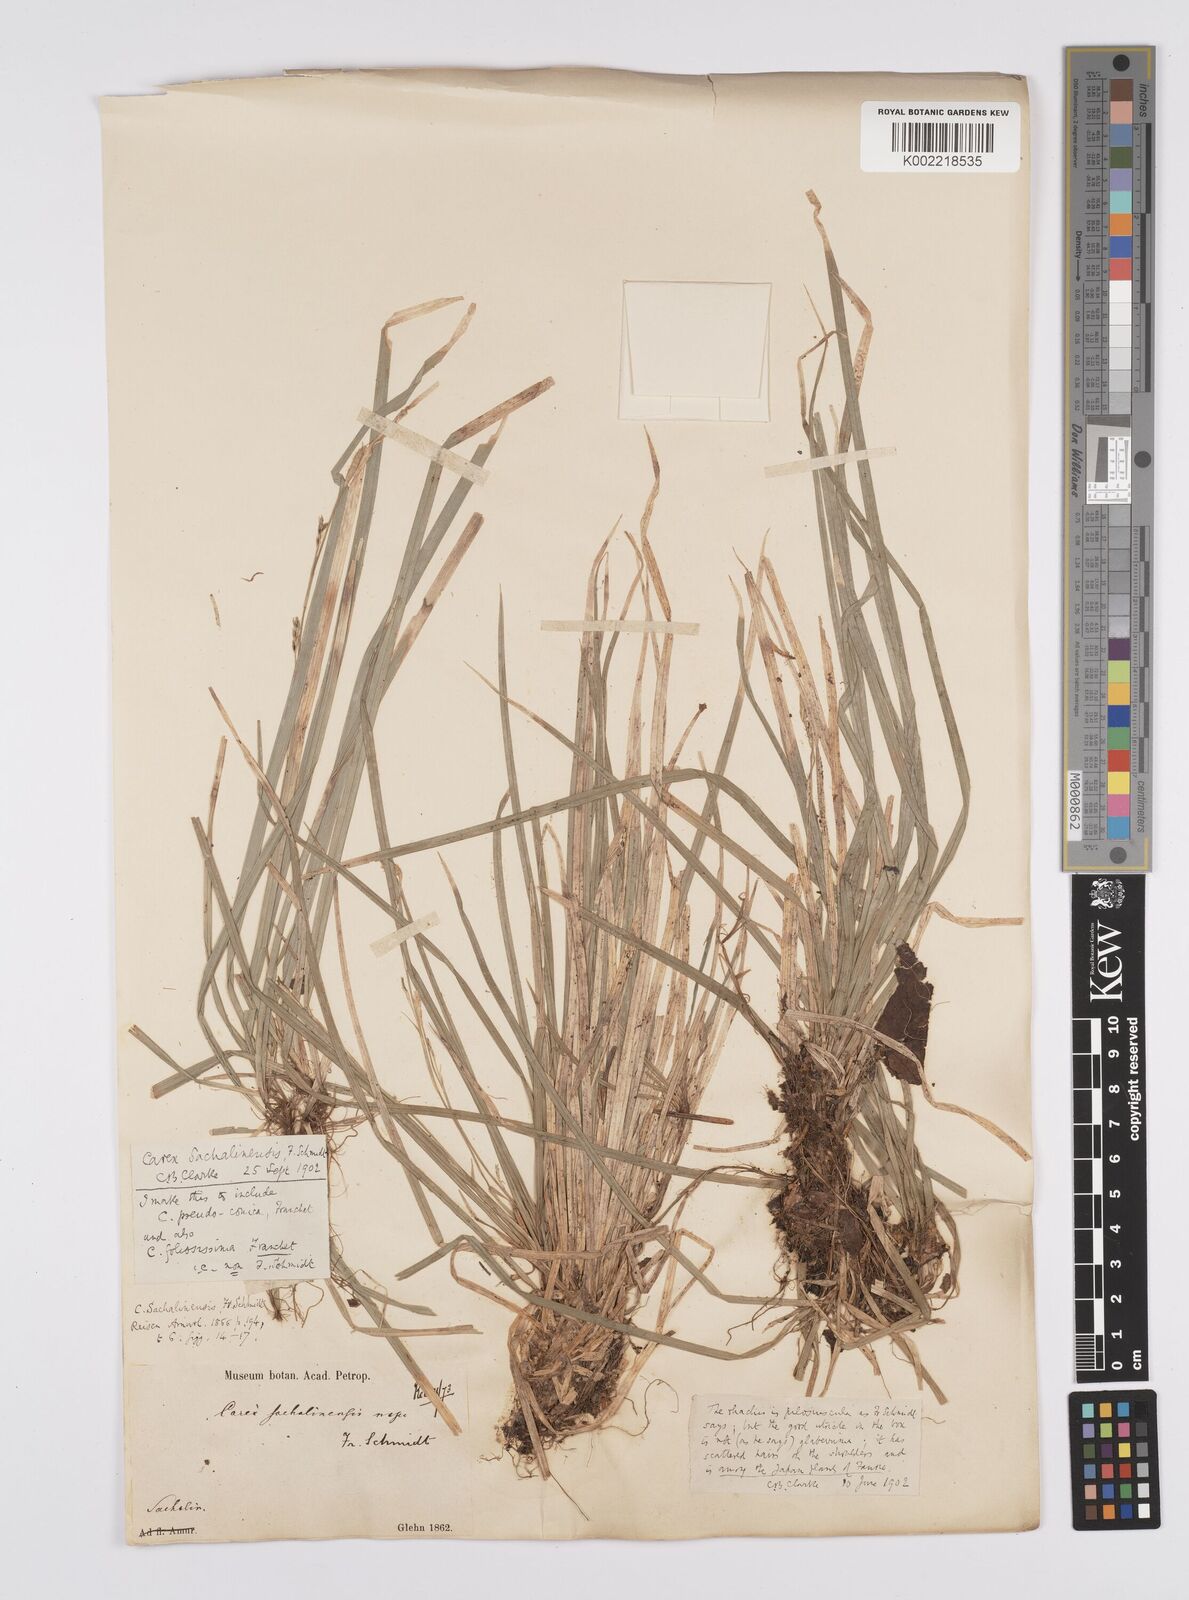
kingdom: Plantae
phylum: Tracheophyta
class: Liliopsida
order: Poales
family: Cyperaceae
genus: Carex
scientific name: Carex pisiformis
